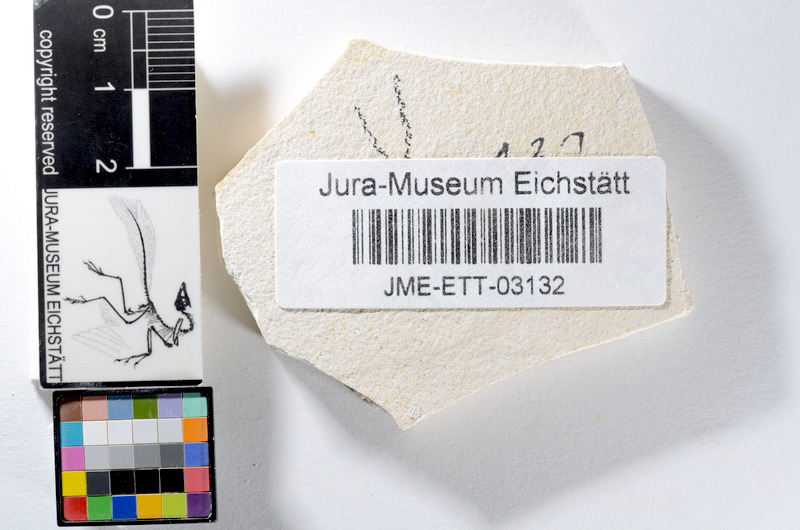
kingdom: Animalia
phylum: Chordata
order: Salmoniformes
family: Orthogonikleithridae
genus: Orthogonikleithrus
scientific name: Orthogonikleithrus hoelli
